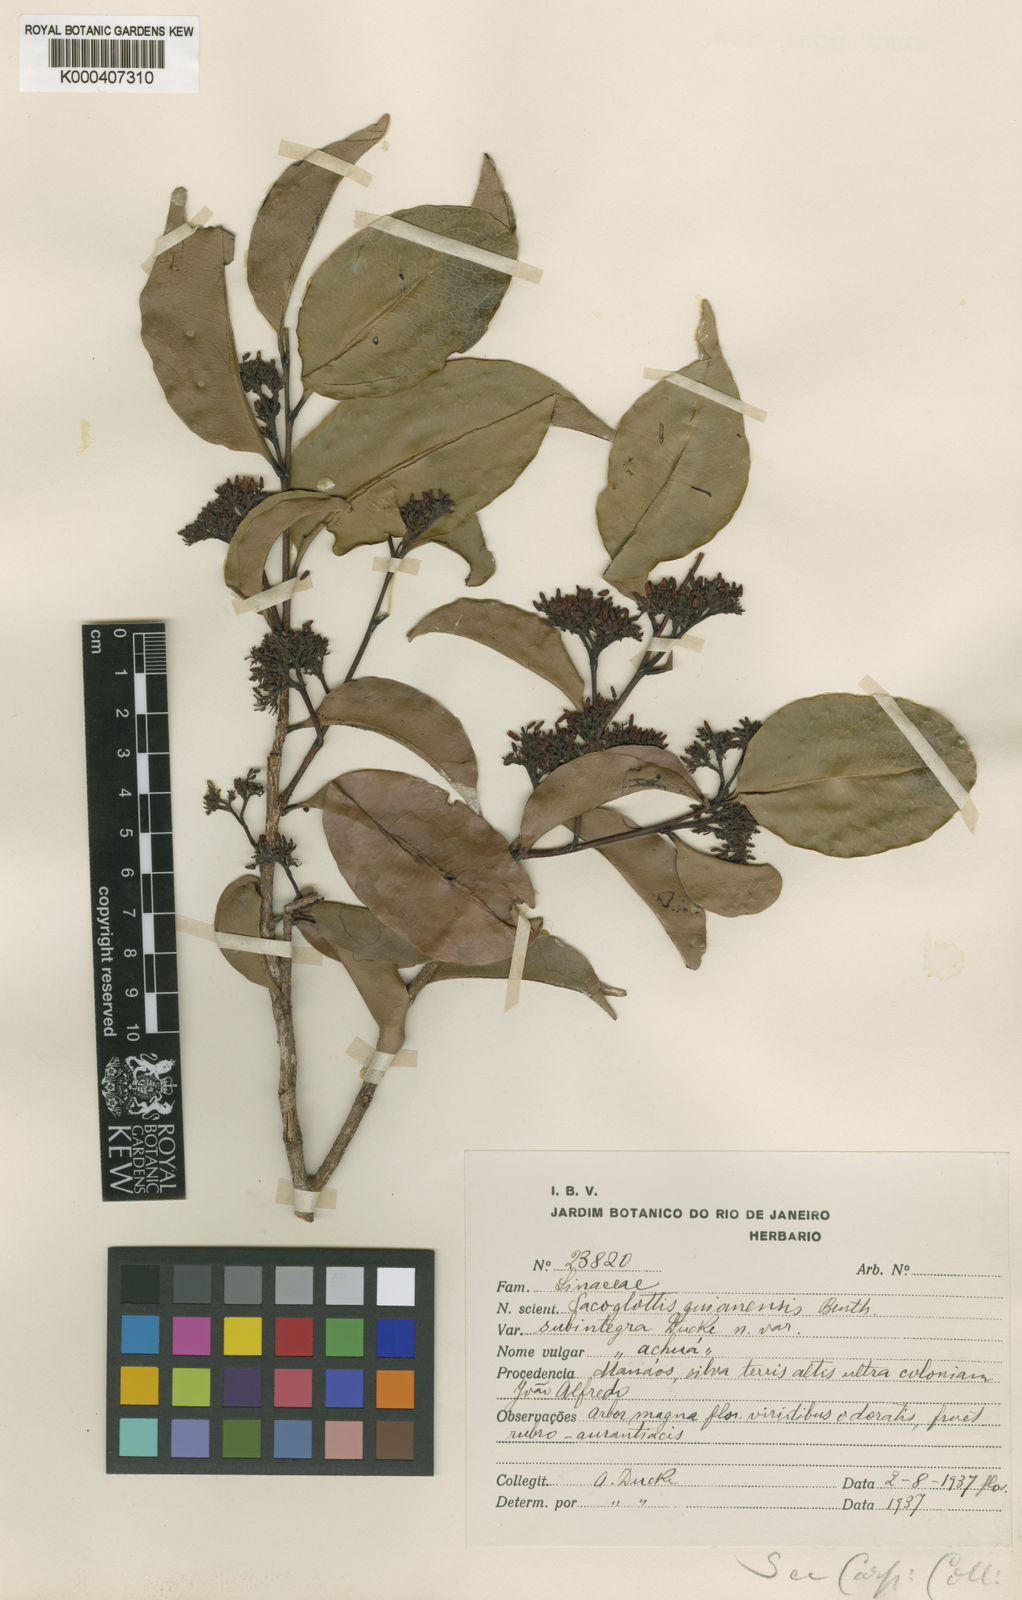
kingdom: Plantae
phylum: Tracheophyta
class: Magnoliopsida
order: Malpighiales
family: Humiriaceae
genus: Sacoglottis
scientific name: Sacoglottis mattogrossensis
